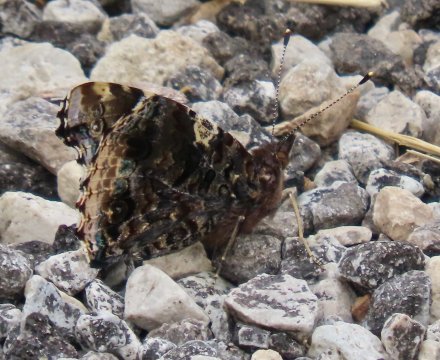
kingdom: Animalia
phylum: Arthropoda
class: Insecta
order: Lepidoptera
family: Nymphalidae
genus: Vanessa
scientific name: Vanessa atalanta
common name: Red Admiral
